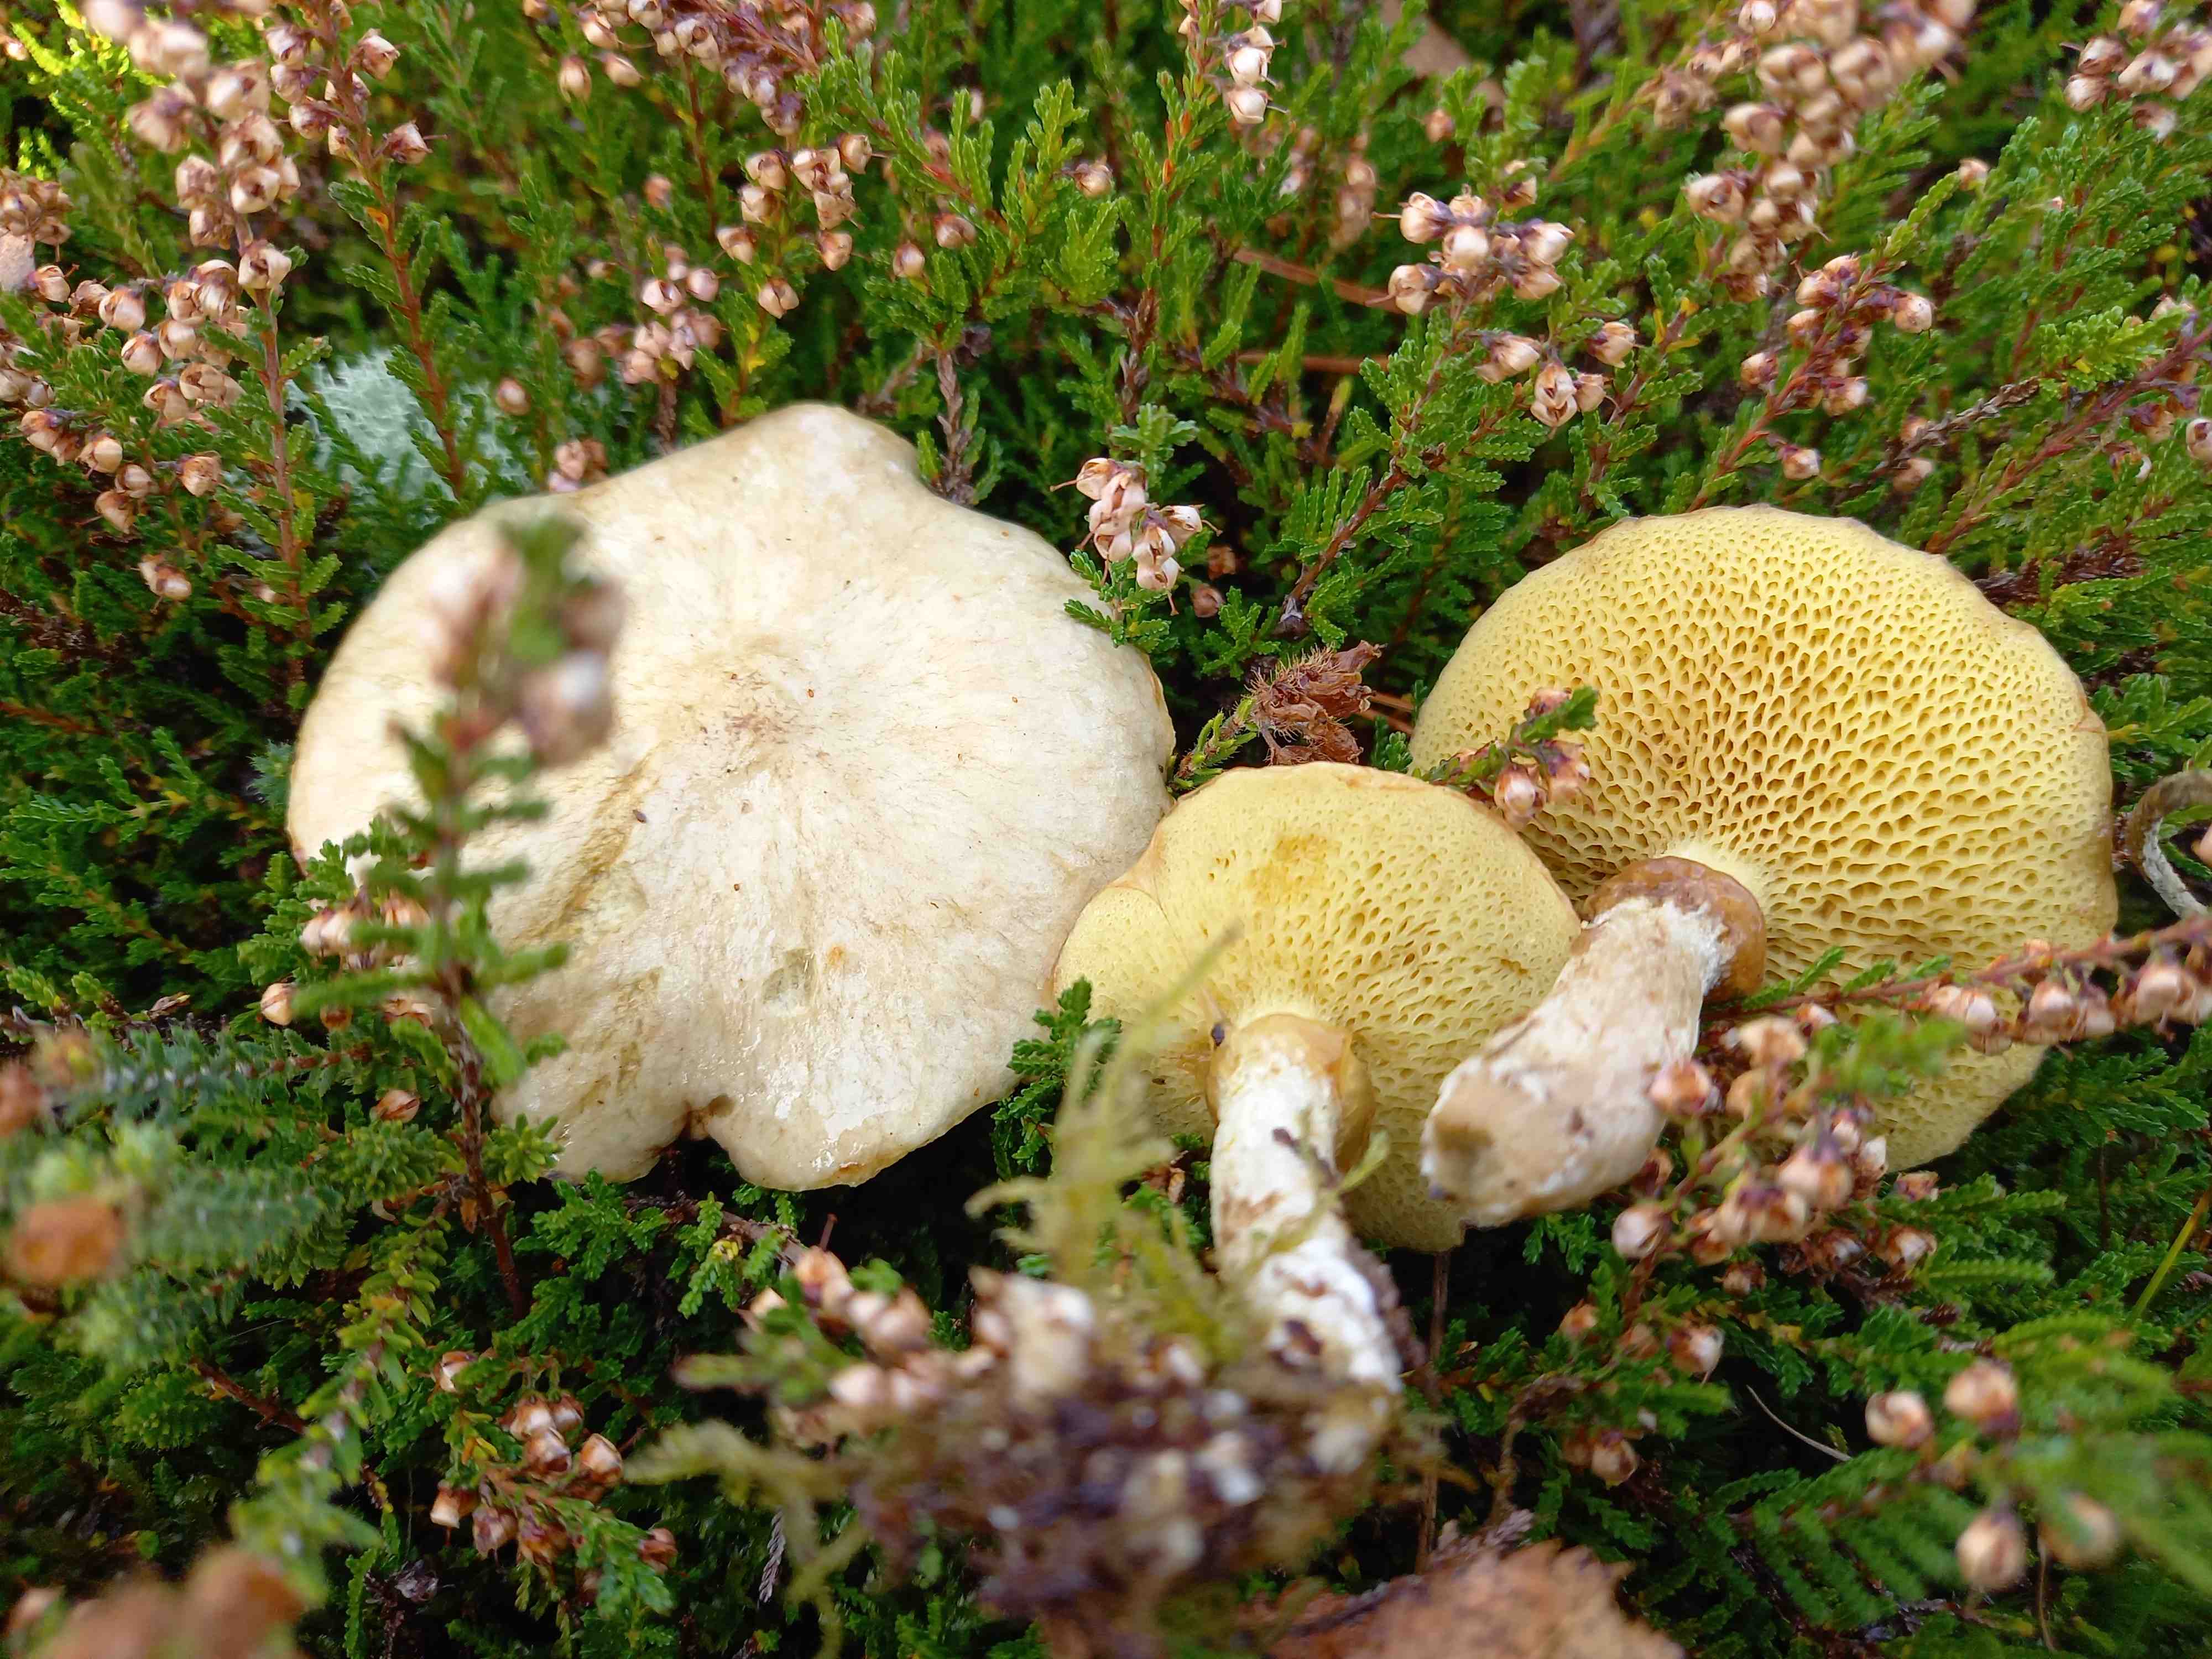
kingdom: Fungi
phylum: Basidiomycota
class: Agaricomycetes
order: Boletales
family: Suillaceae
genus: Suillus
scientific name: Suillus flavidus
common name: mose-slimrørhat
